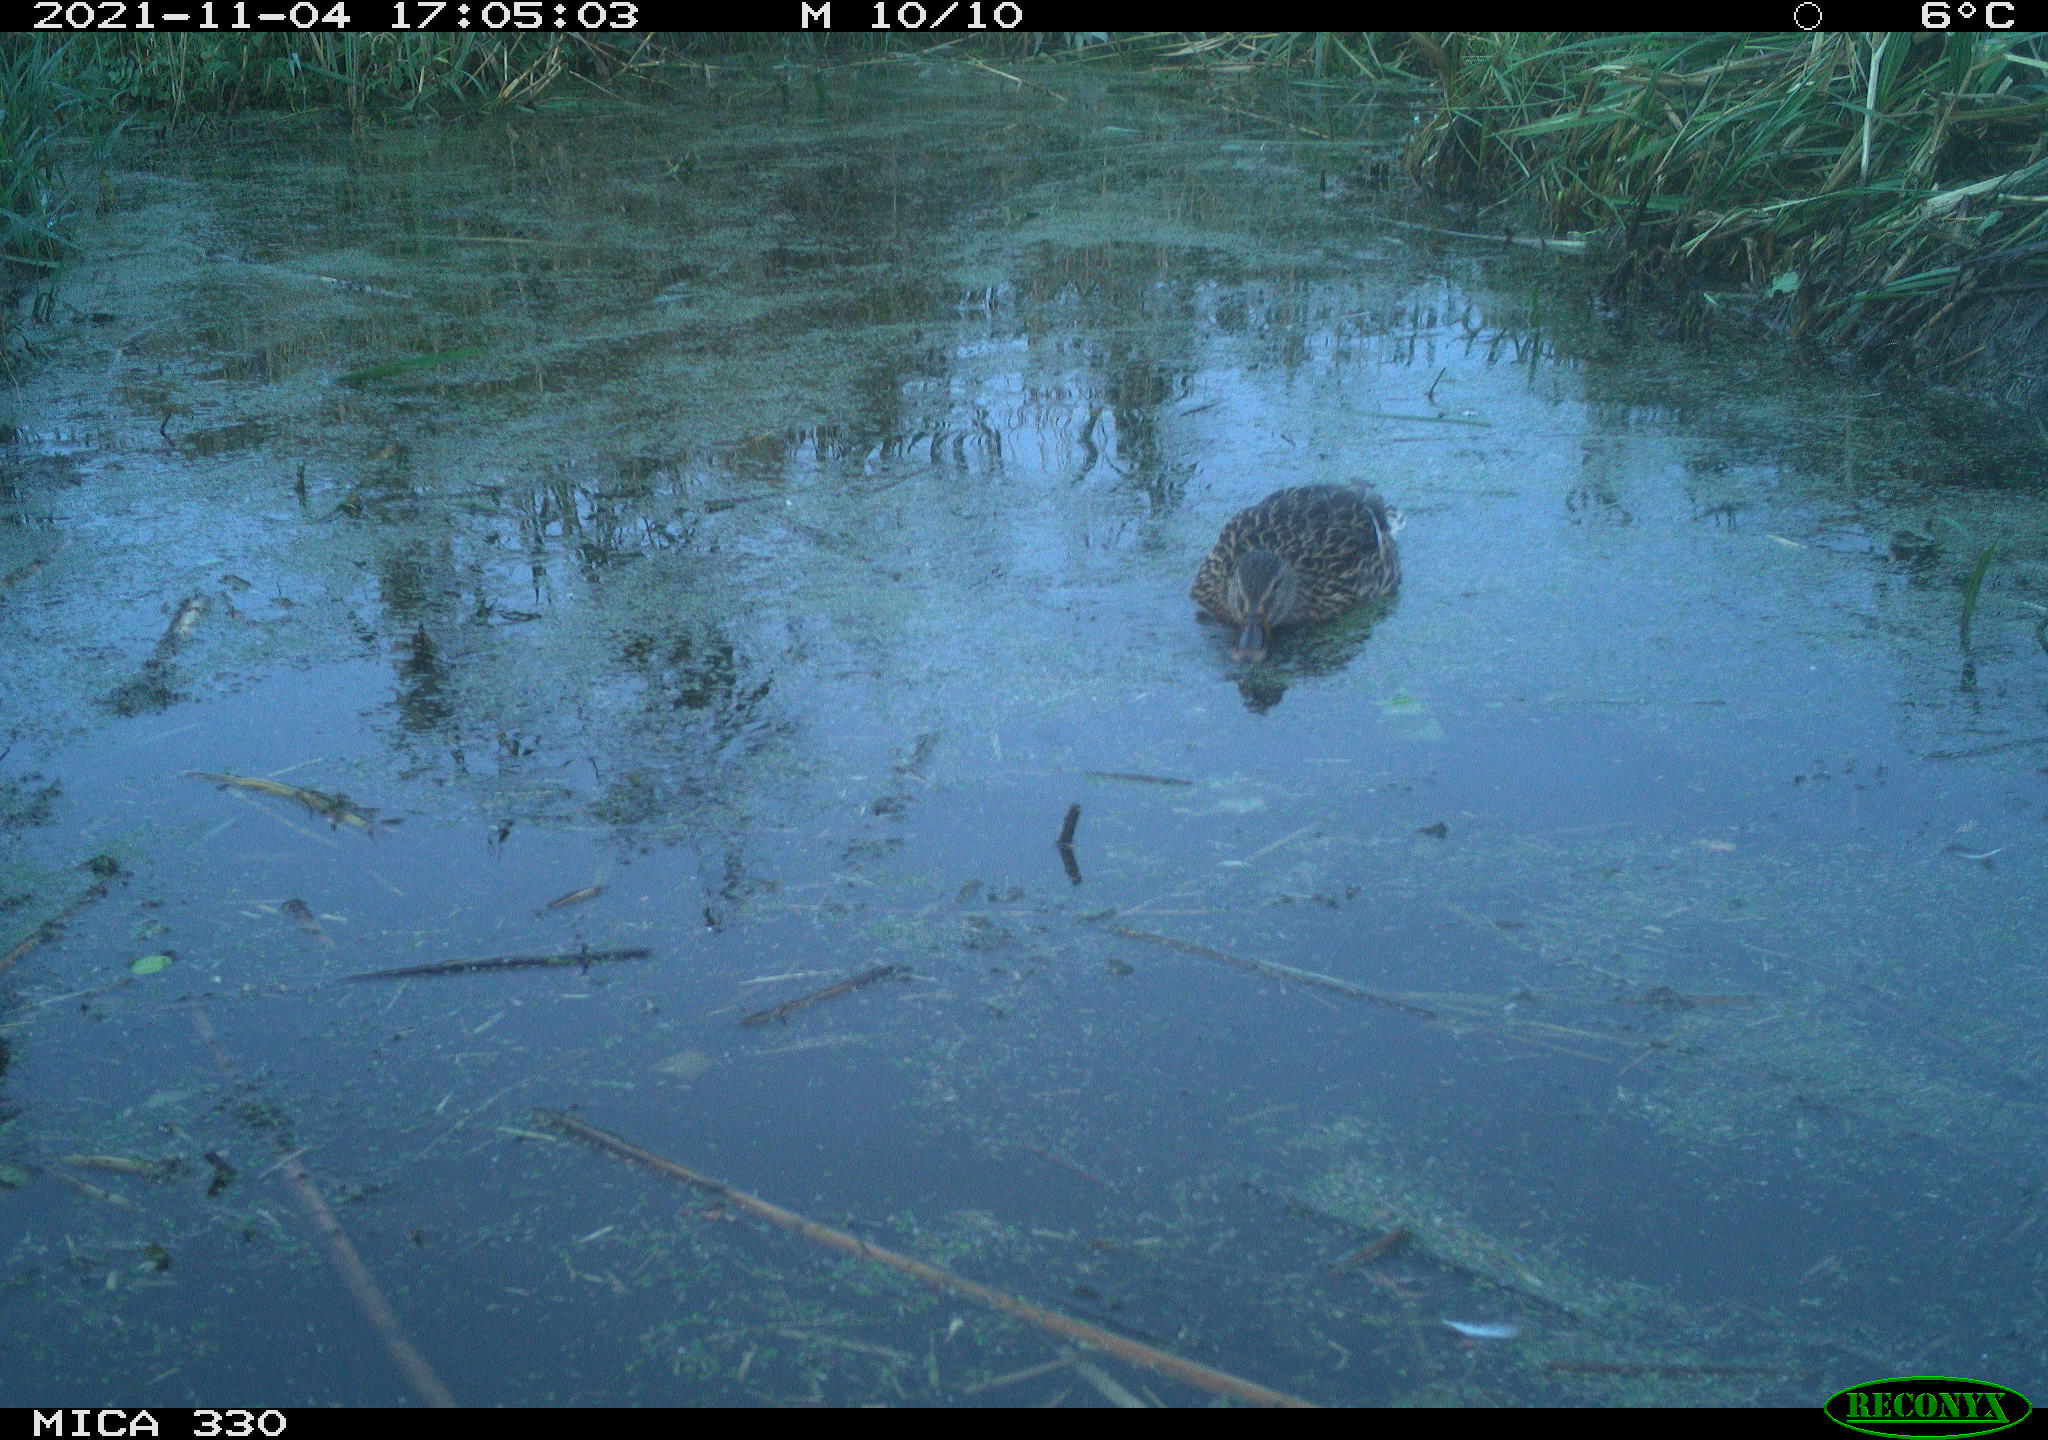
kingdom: Animalia
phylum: Chordata
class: Aves
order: Anseriformes
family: Anatidae
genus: Anas
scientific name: Anas platyrhynchos
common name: Mallard
